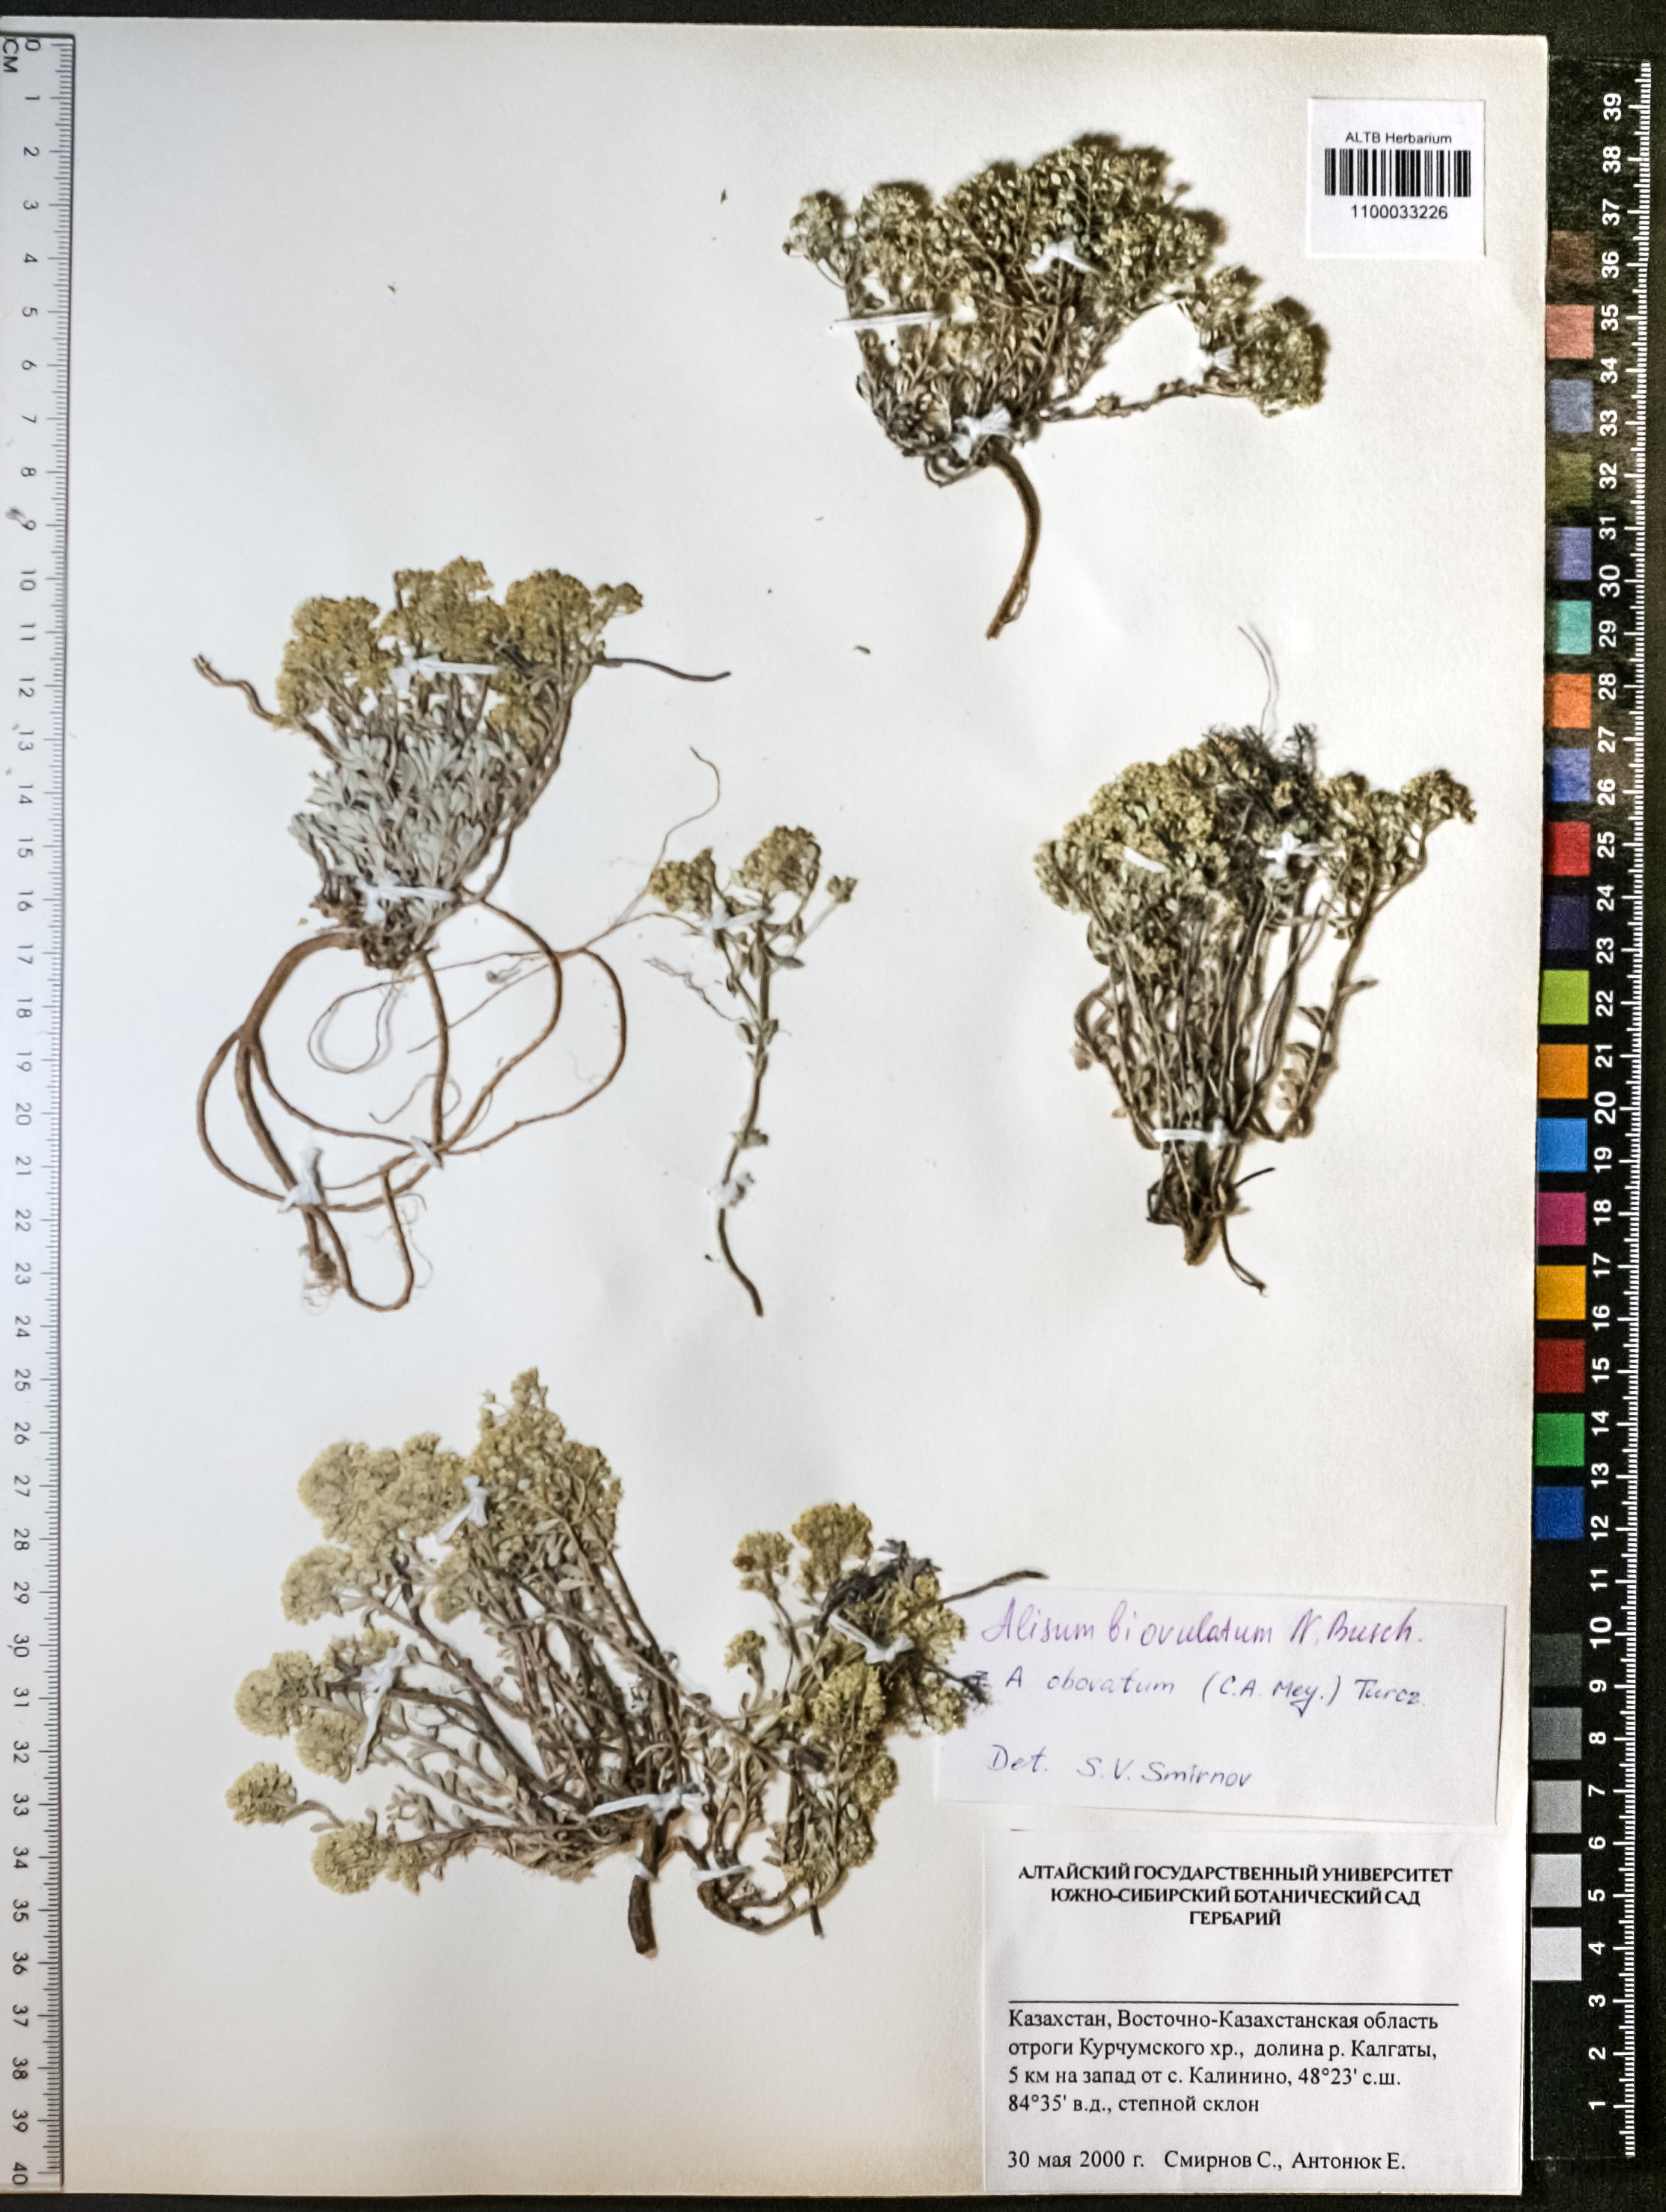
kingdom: Plantae
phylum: Tracheophyta
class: Magnoliopsida
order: Brassicales
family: Brassicaceae
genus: Odontarrhena
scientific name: Odontarrhena obovata
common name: American alyssum
